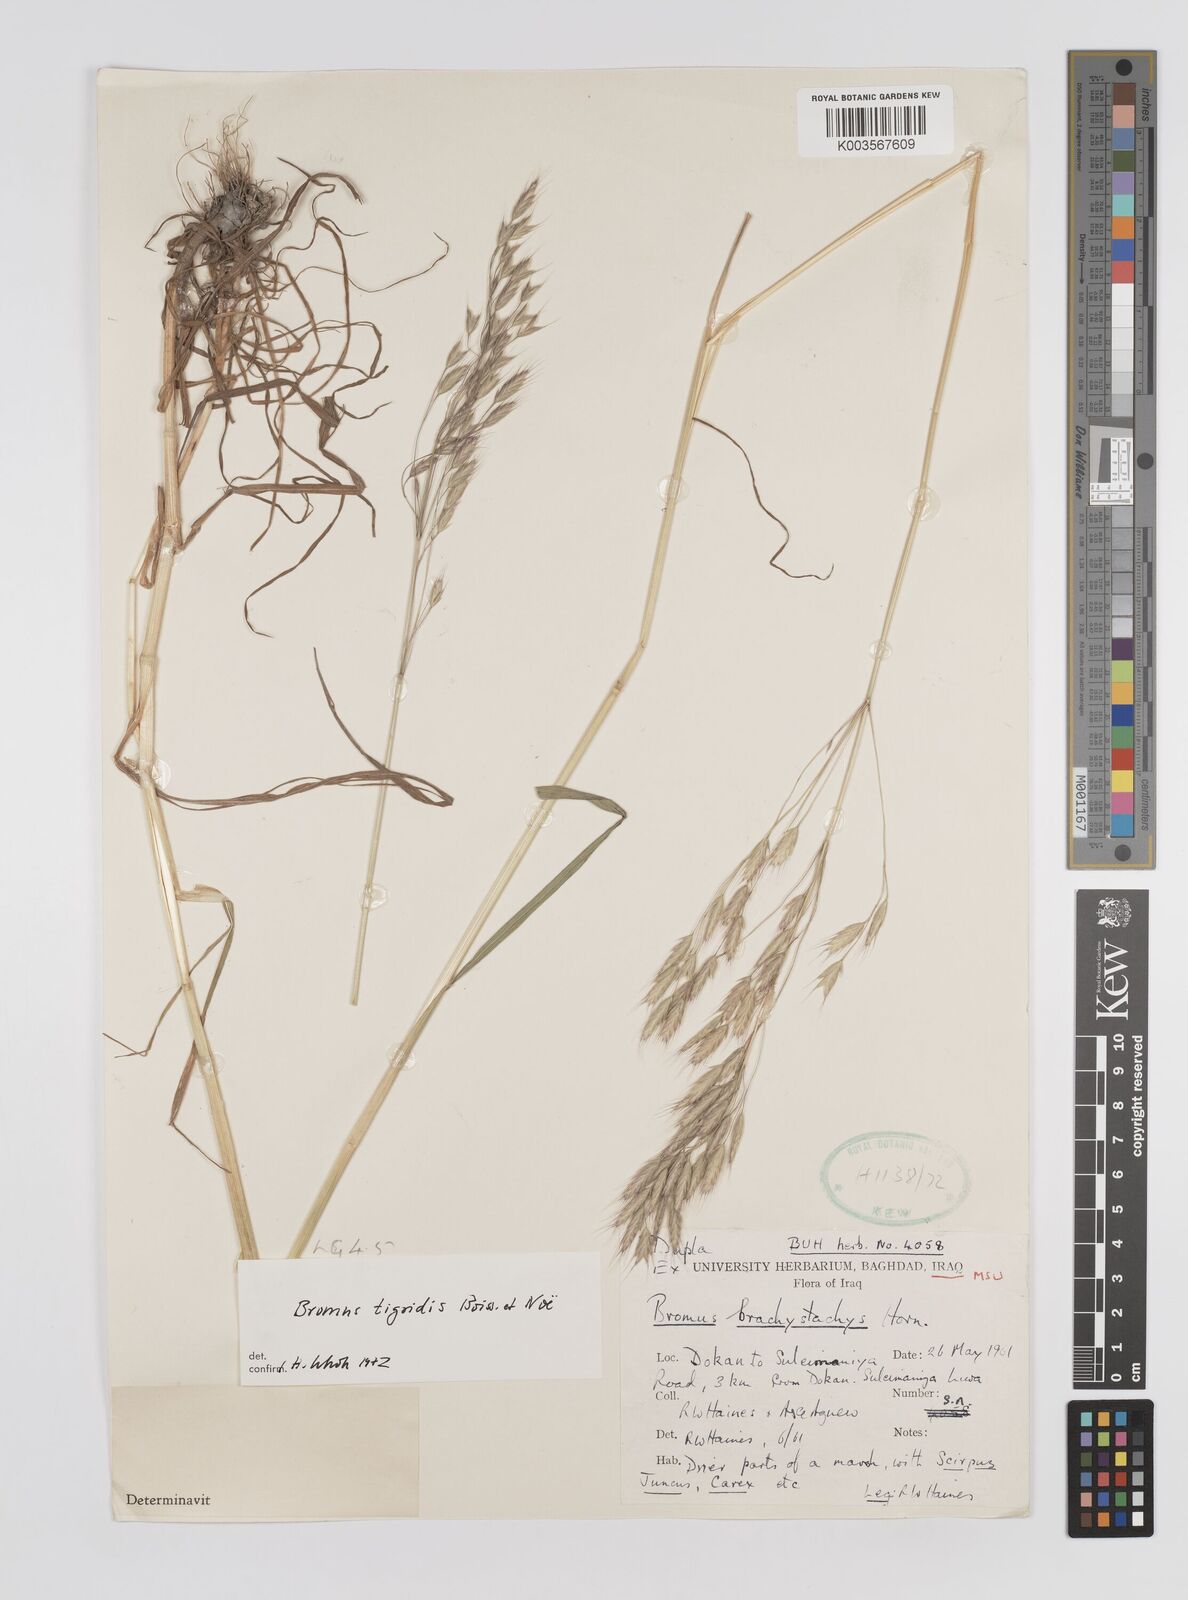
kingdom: Plantae
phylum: Tracheophyta
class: Liliopsida
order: Poales
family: Poaceae
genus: Bromus
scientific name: Bromus brachystachys
